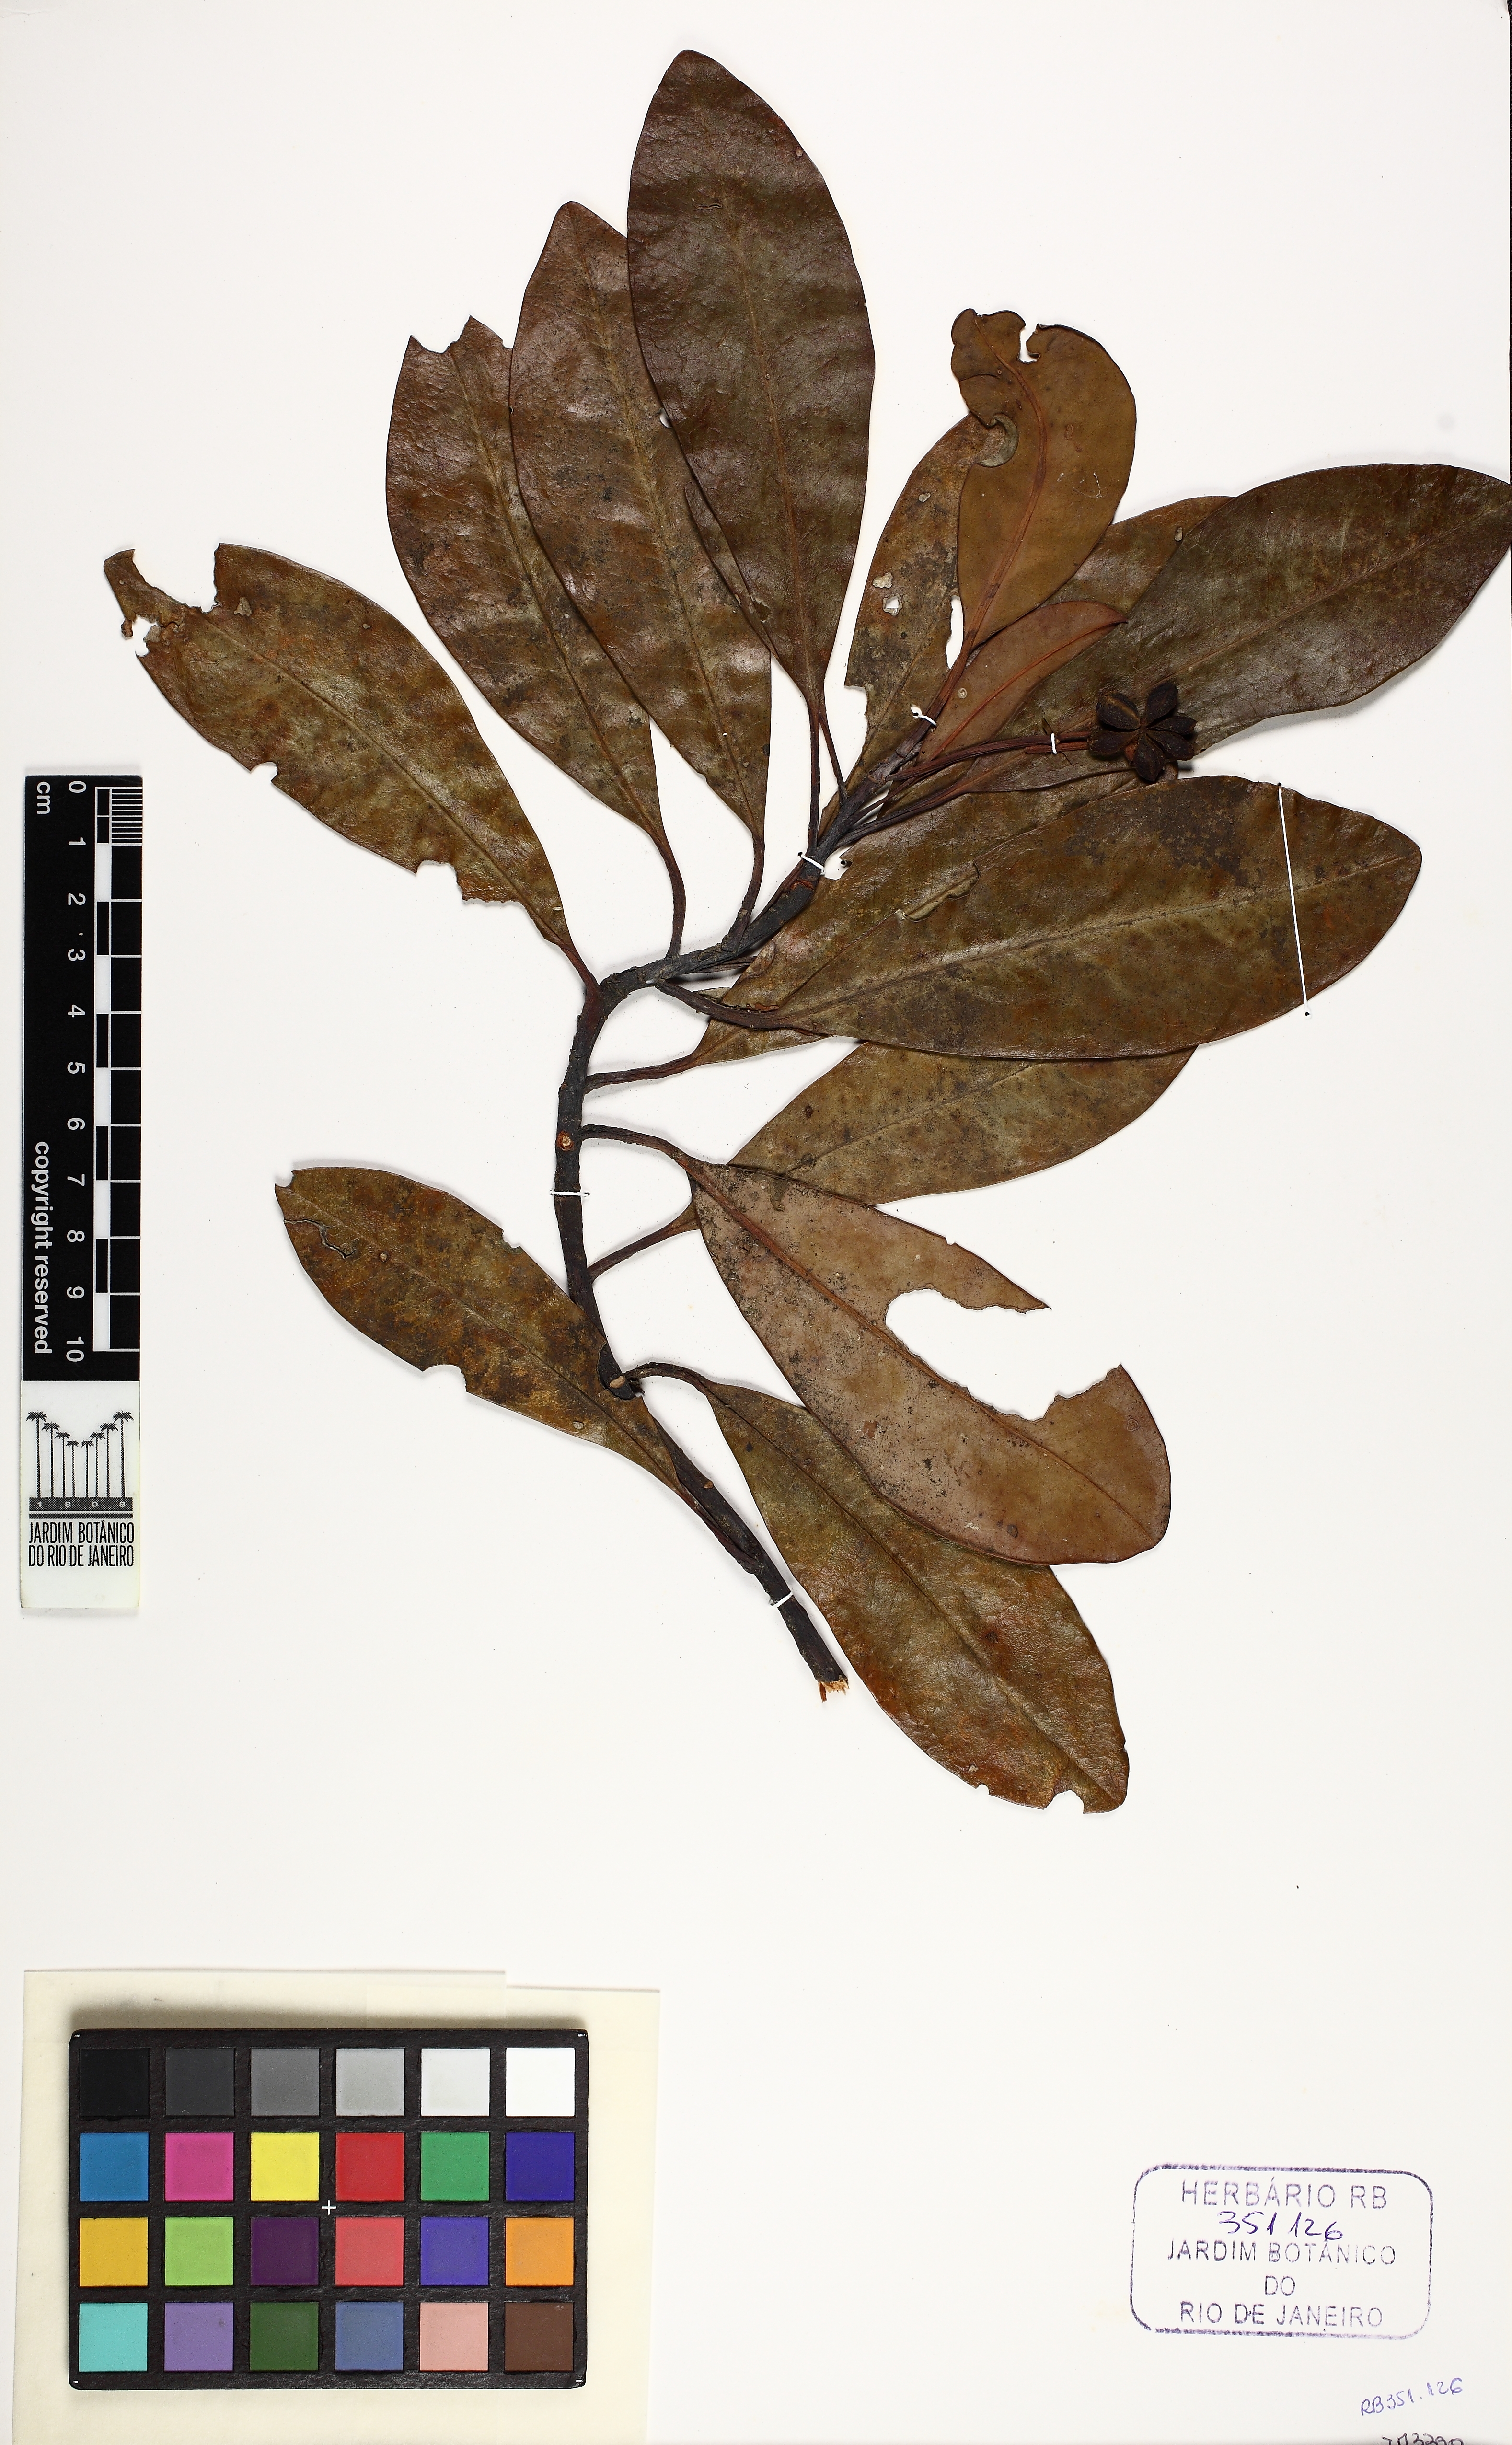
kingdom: Plantae
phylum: Tracheophyta
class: Magnoliopsida
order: Canellales
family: Winteraceae
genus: Drimys
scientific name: Drimys
